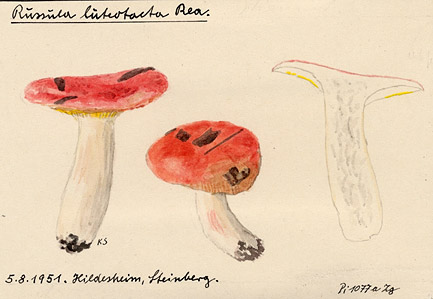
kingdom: Fungi
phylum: Basidiomycota
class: Agaricomycetes
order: Russulales
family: Russulaceae
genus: Russula
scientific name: Russula luteotacta
